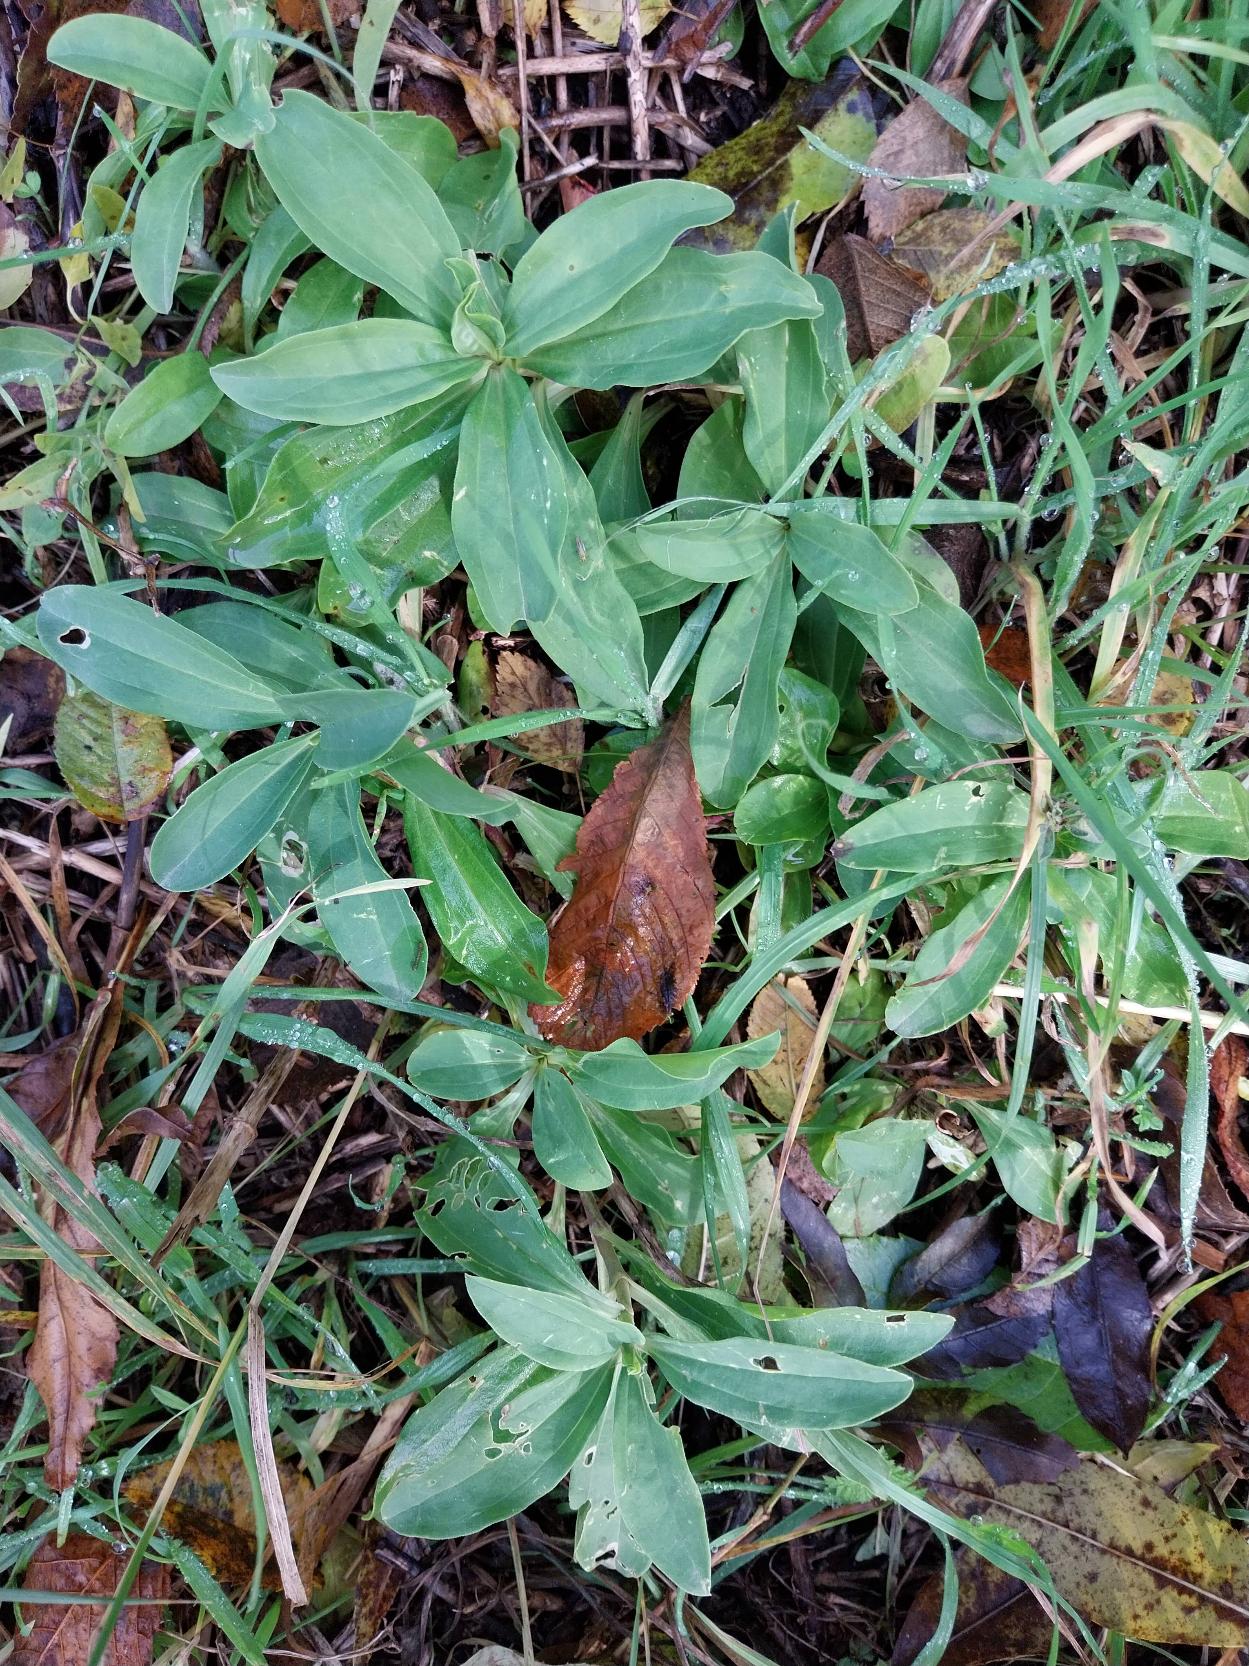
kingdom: Plantae
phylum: Tracheophyta
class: Magnoliopsida
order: Caryophyllales
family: Caryophyllaceae
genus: Saponaria
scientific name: Saponaria officinalis
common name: Sæbeurt
